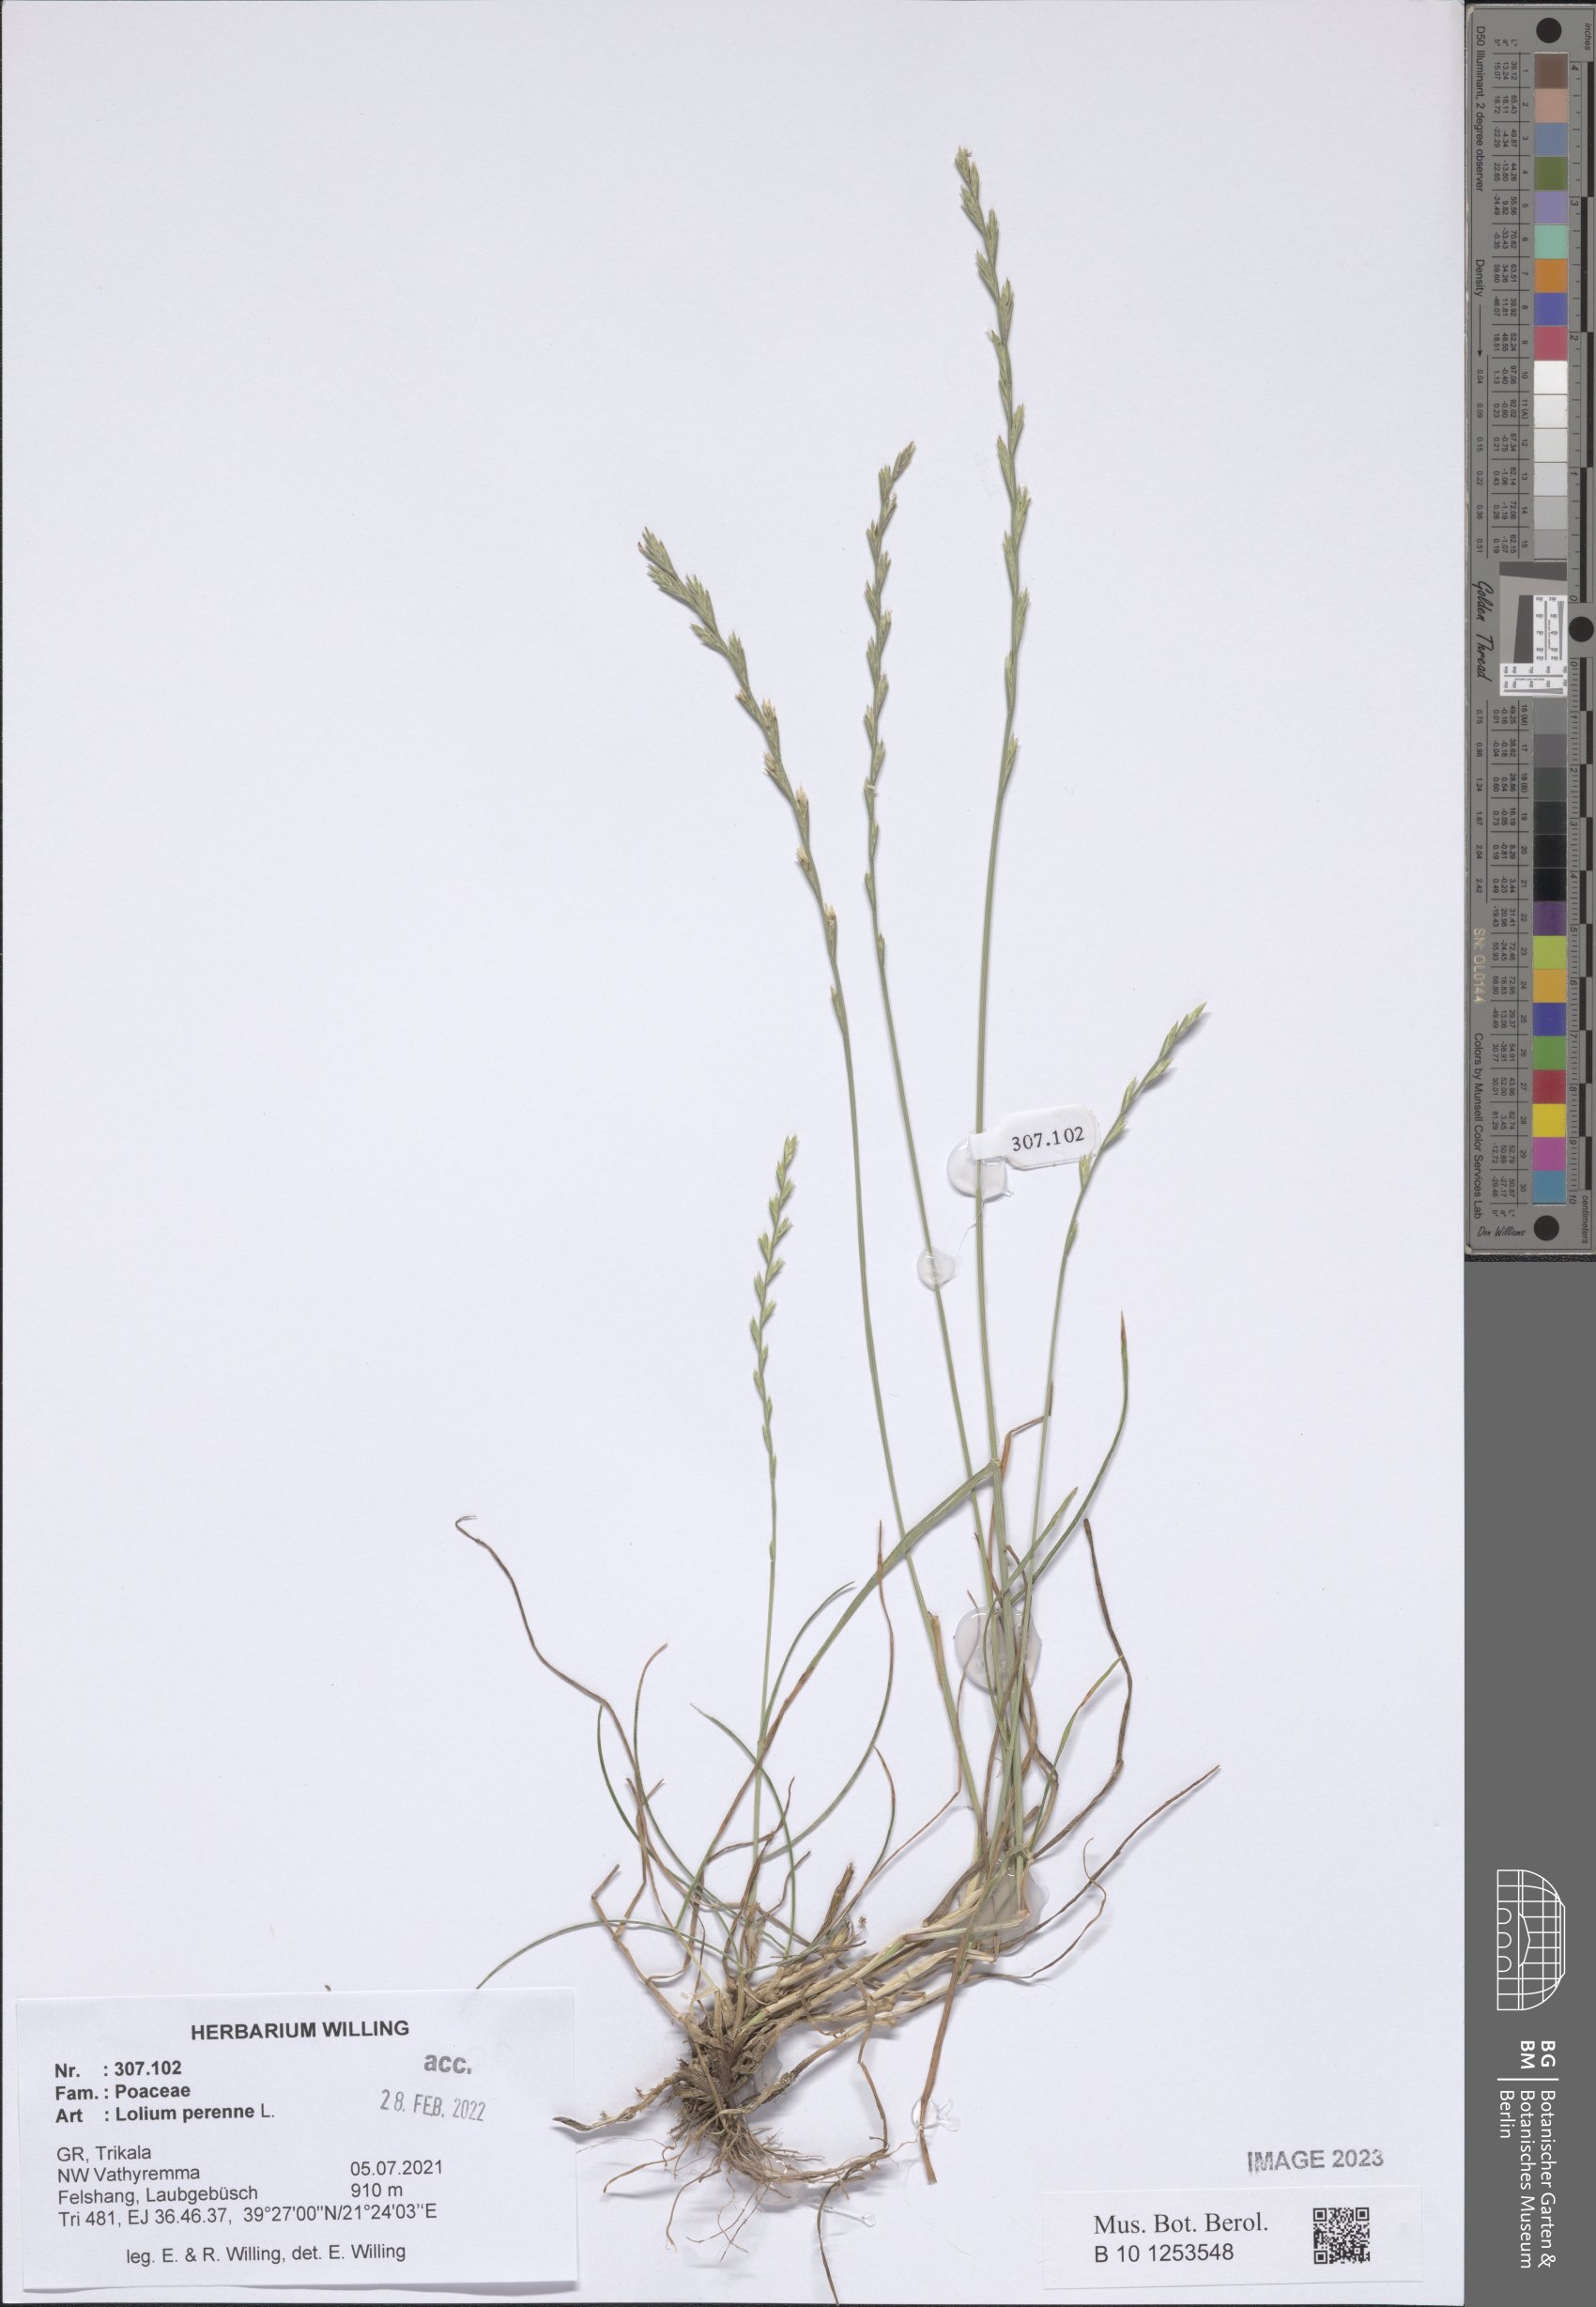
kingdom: Plantae
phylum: Tracheophyta
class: Liliopsida
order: Poales
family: Poaceae
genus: Lolium
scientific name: Lolium perenne
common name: Perennial ryegrass
